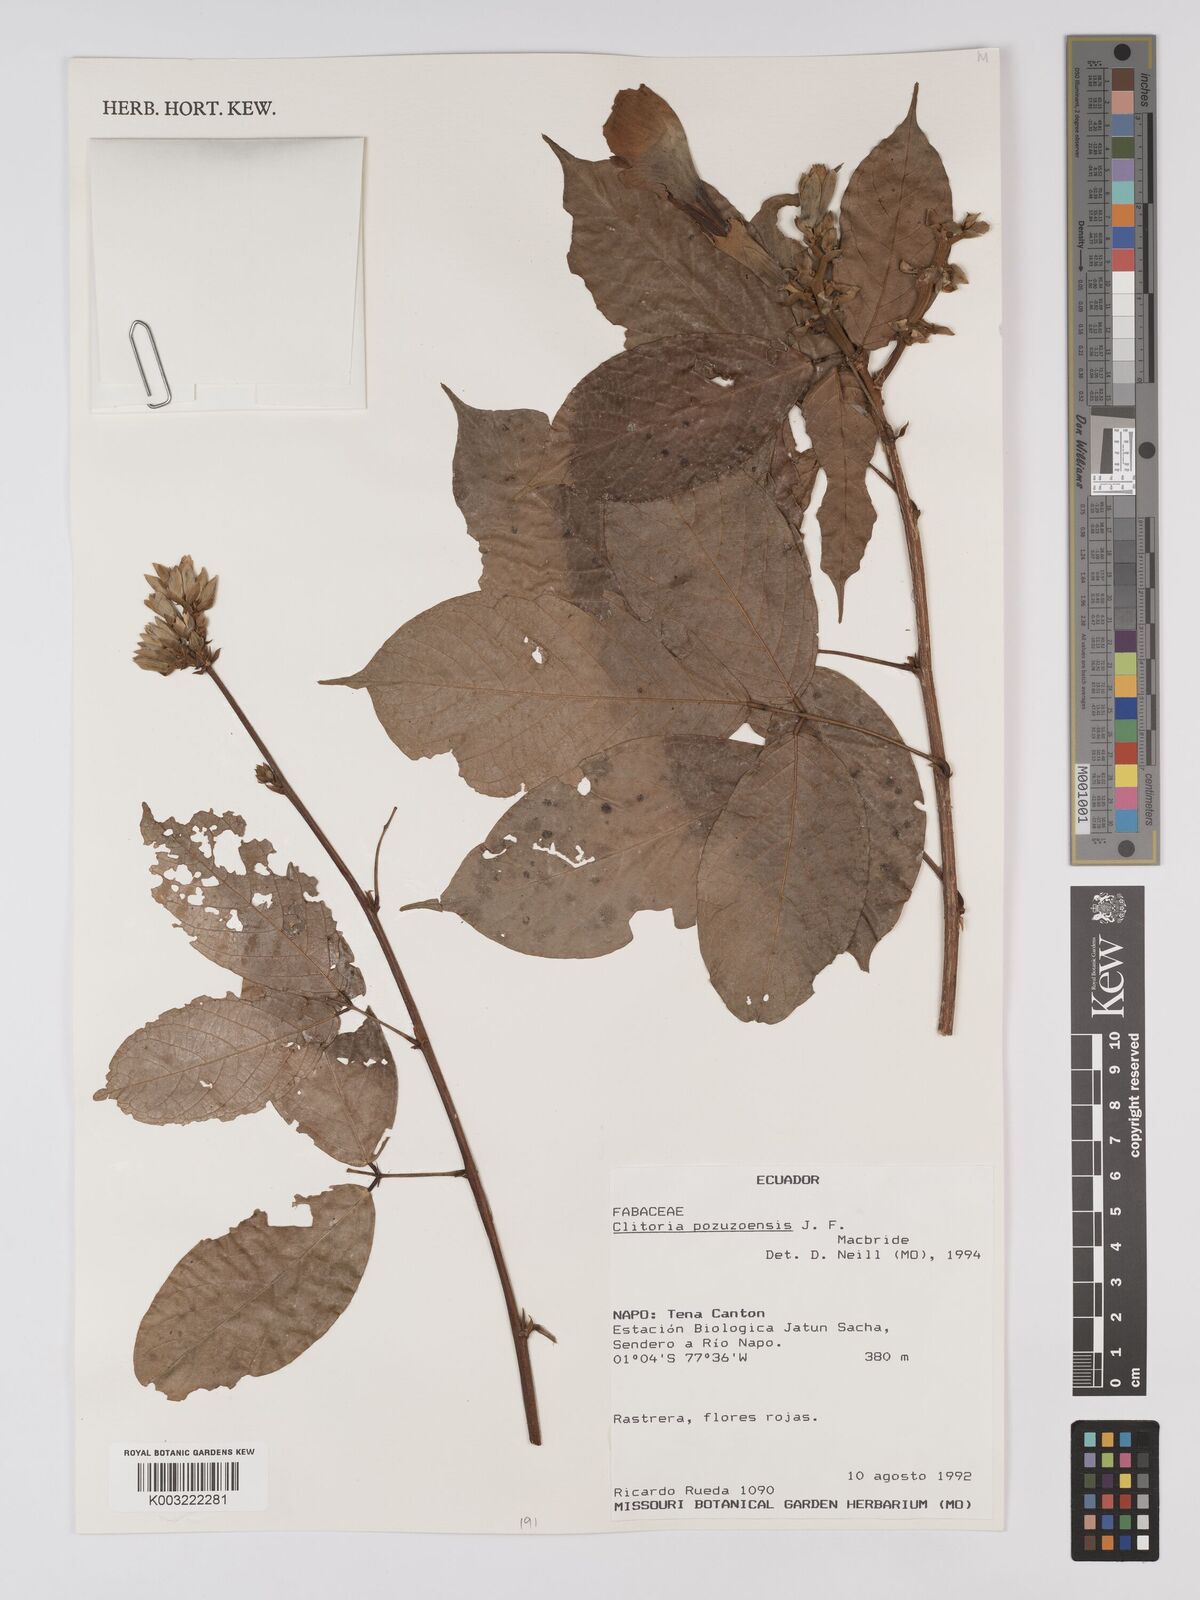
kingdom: Plantae
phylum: Tracheophyta
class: Magnoliopsida
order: Fabales
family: Fabaceae
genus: Clitoria
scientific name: Clitoria pozuzoensis
